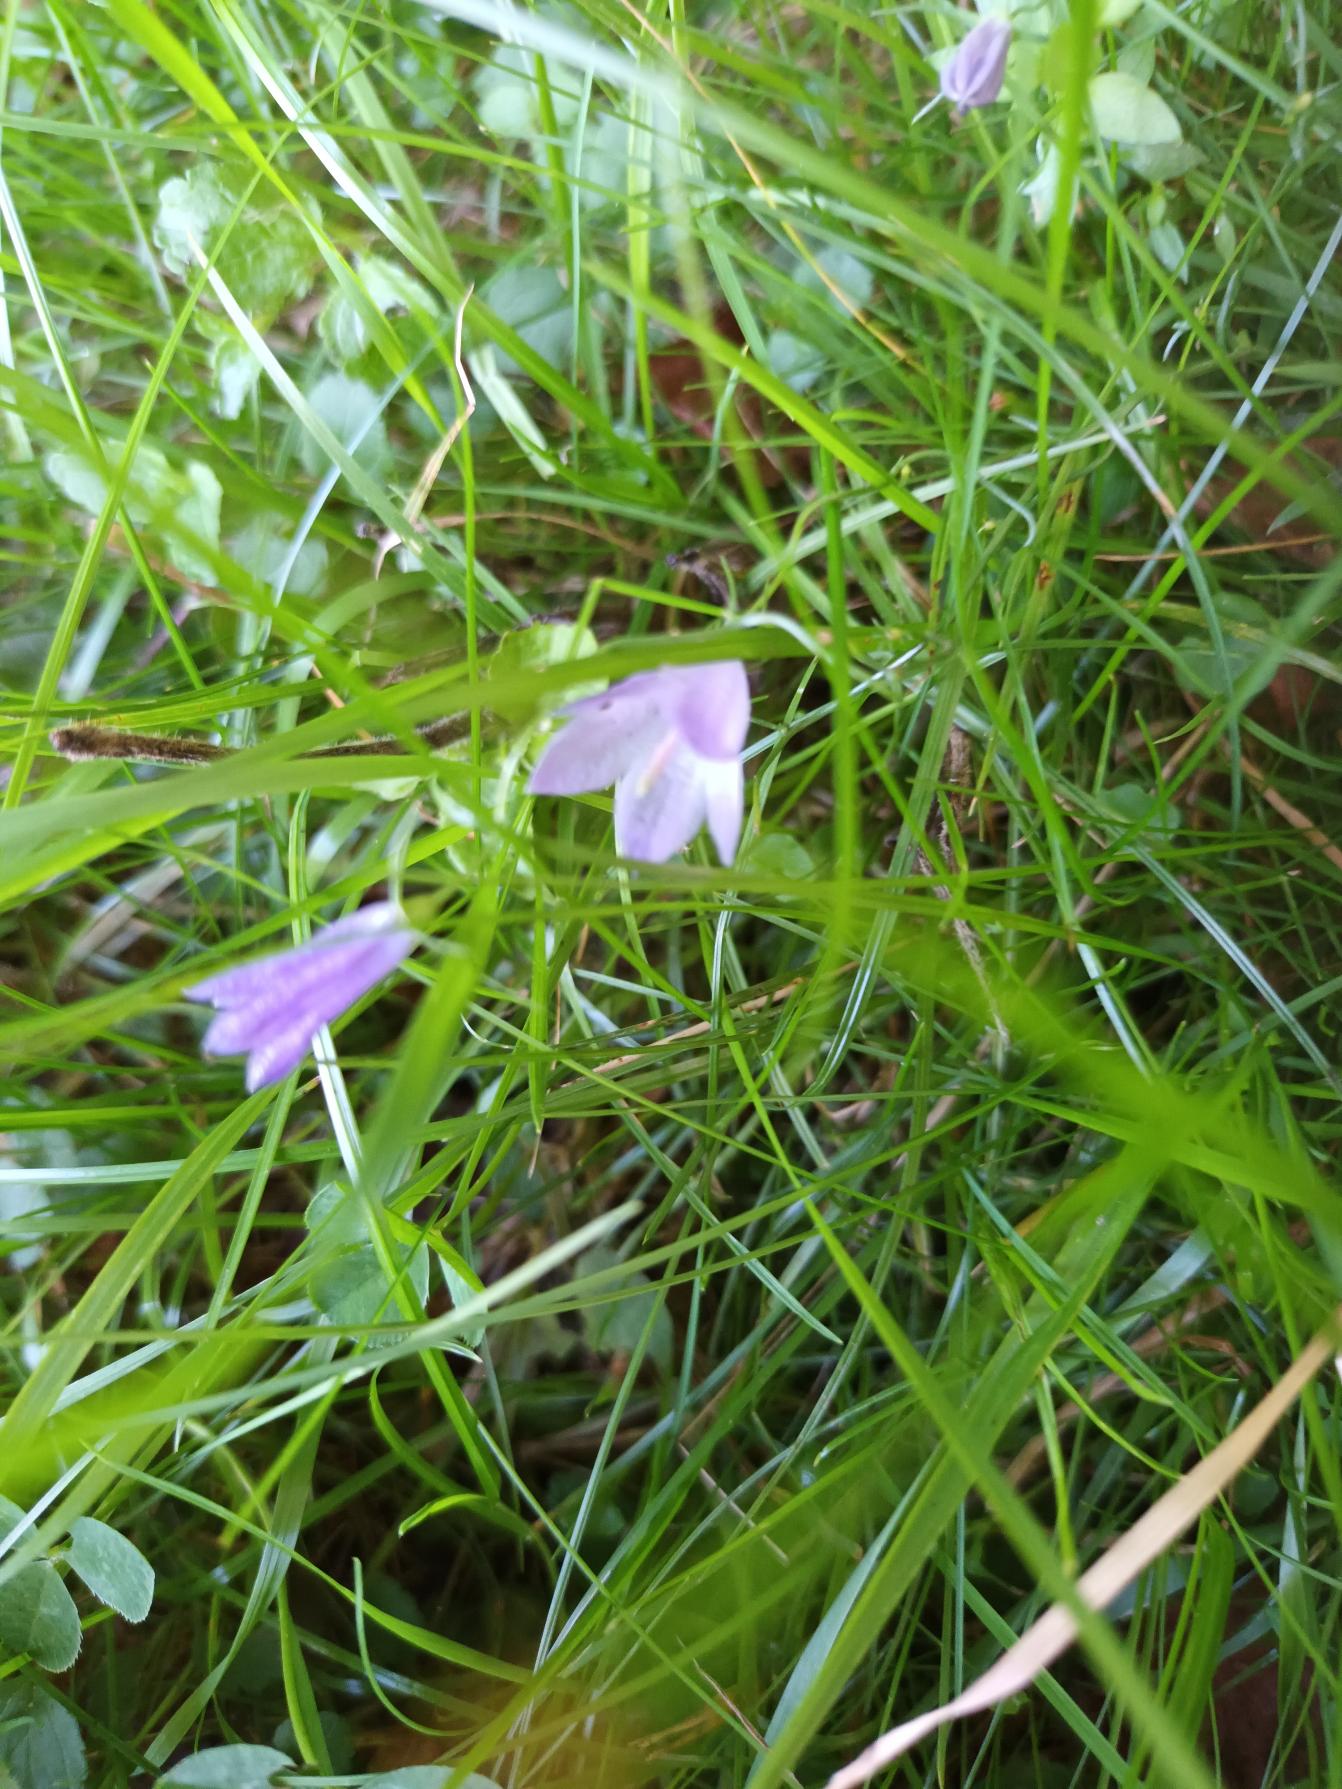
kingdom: Plantae
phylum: Tracheophyta
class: Magnoliopsida
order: Asterales
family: Campanulaceae
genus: Campanula
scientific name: Campanula rotundifolia
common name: Liden klokke
